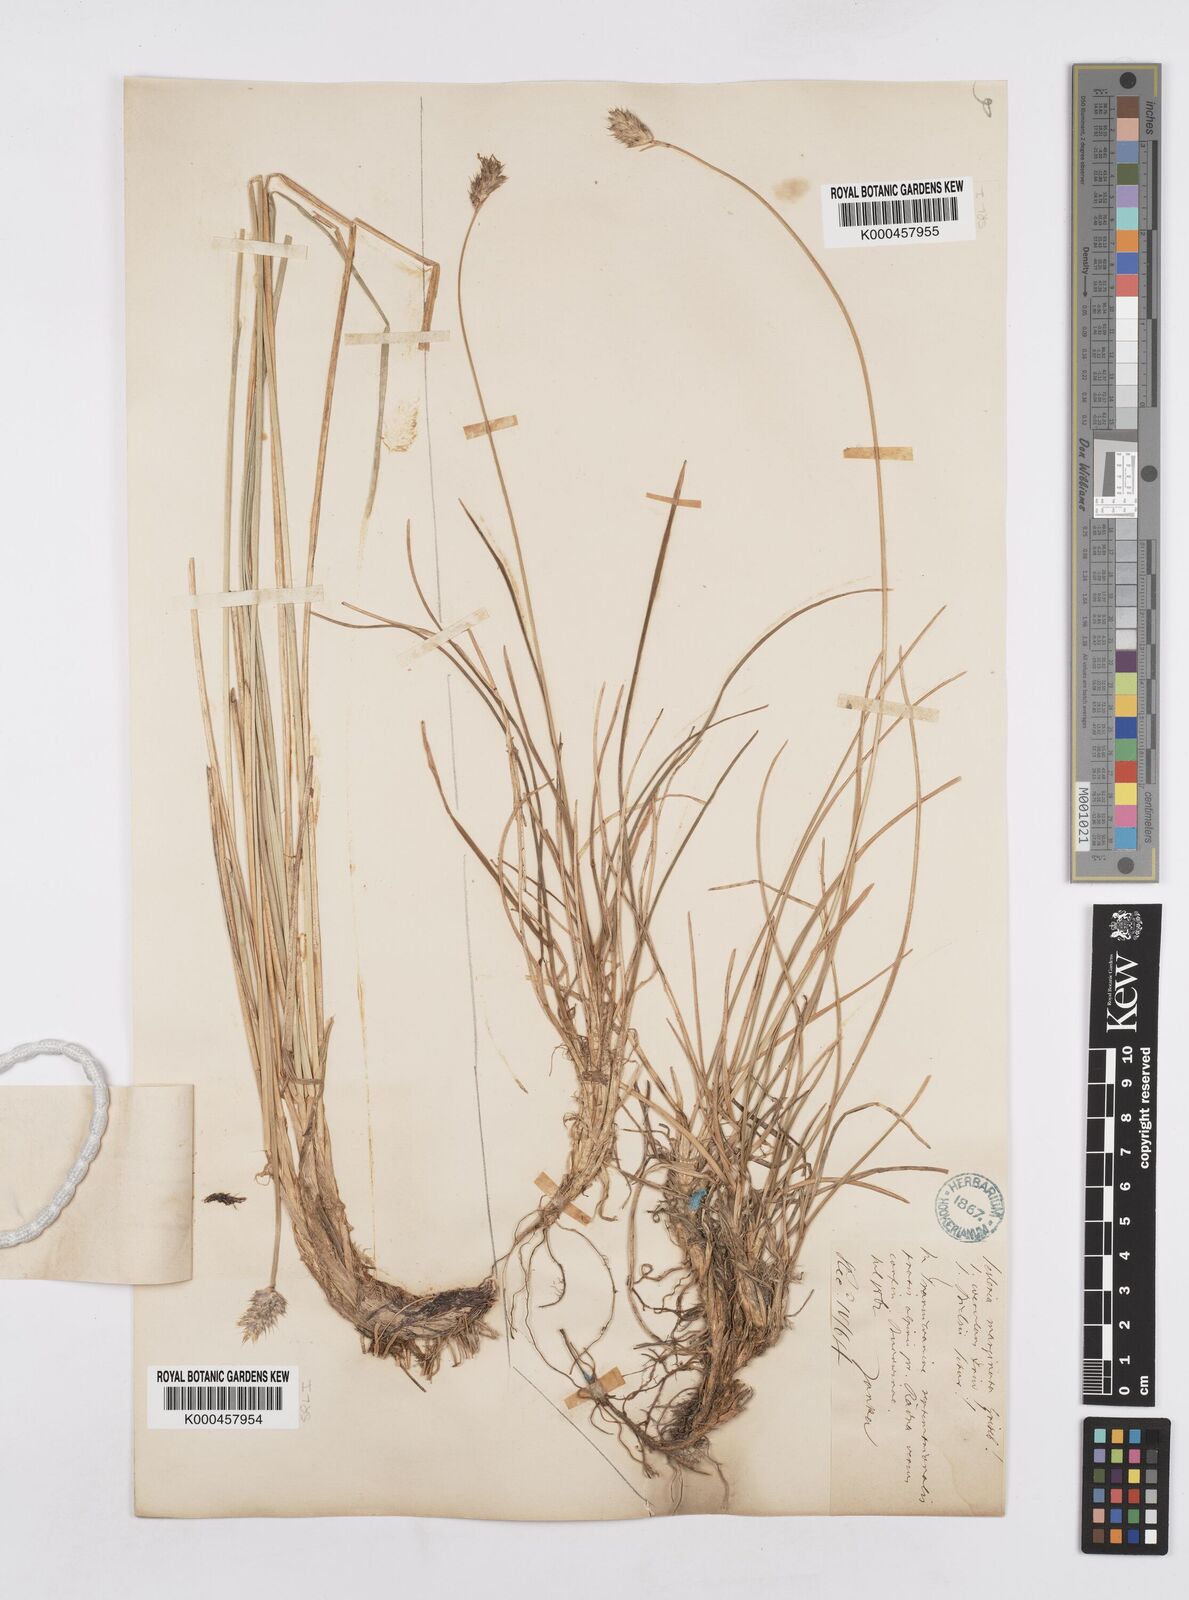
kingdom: Plantae
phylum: Tracheophyta
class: Liliopsida
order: Poales
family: Poaceae
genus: Sesleria
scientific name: Sesleria coerulans
